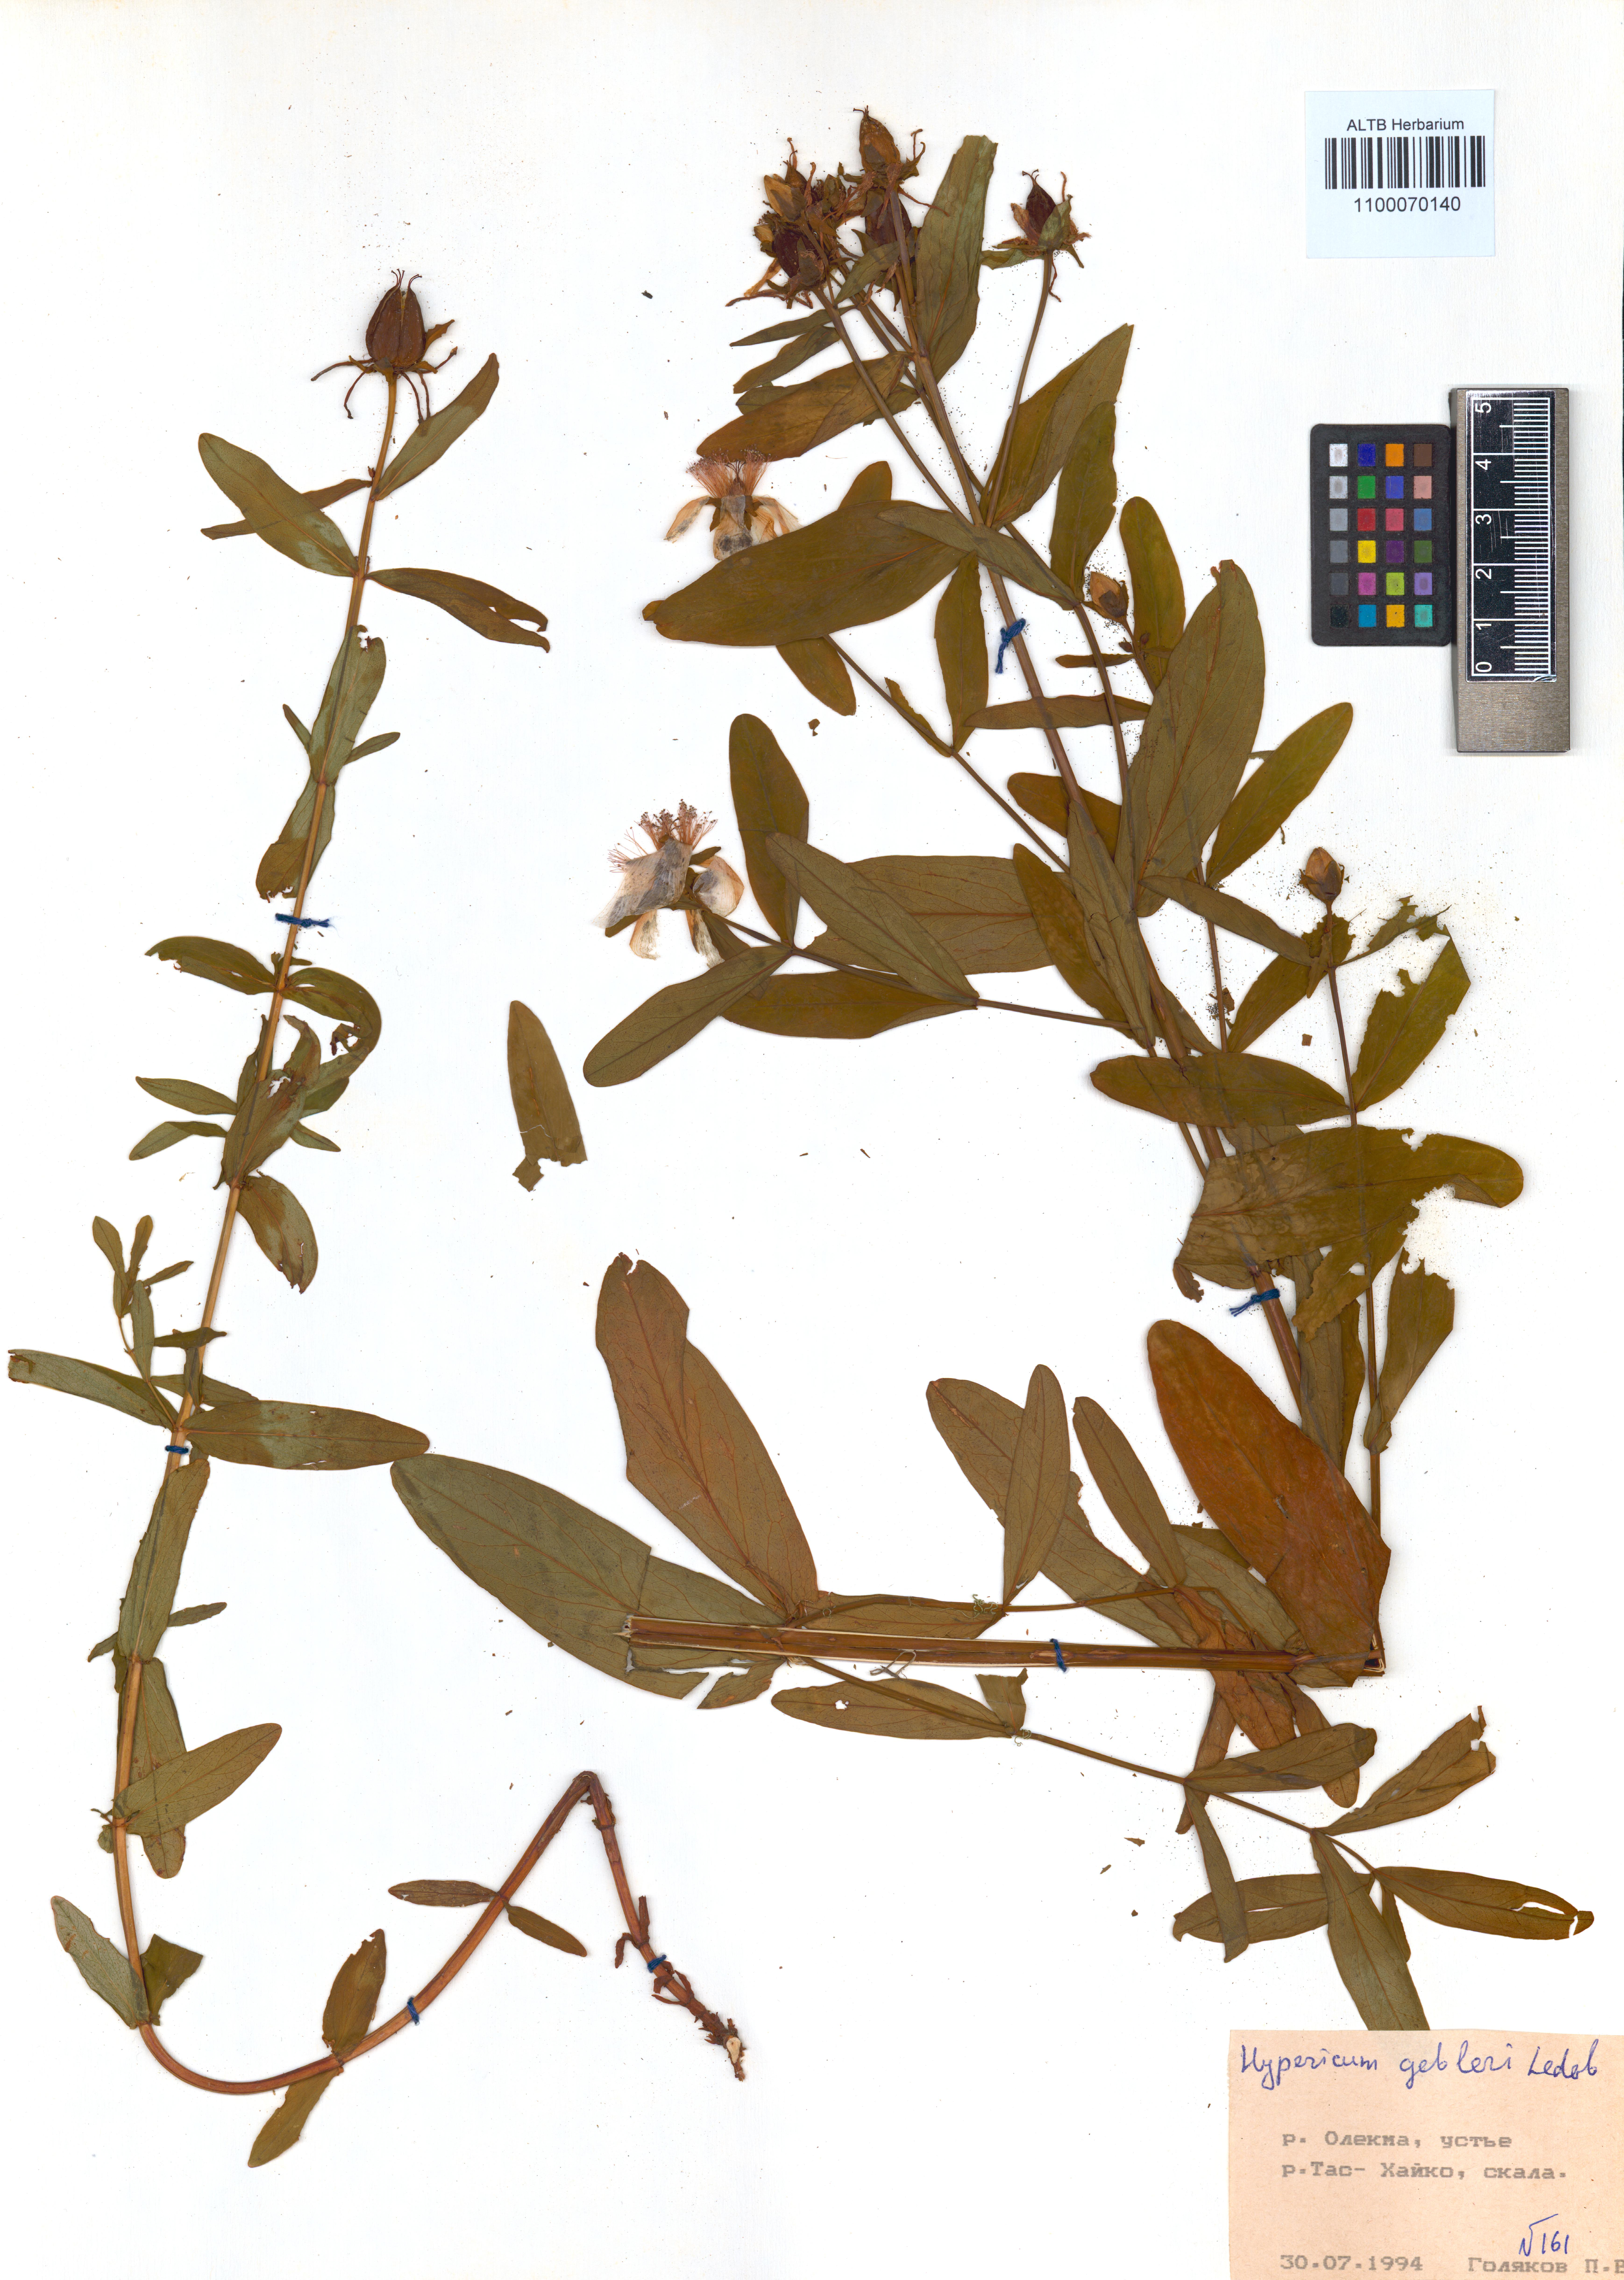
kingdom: Plantae
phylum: Tracheophyta
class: Magnoliopsida
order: Malpighiales
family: Hypericaceae
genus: Hypericum
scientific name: Hypericum ascyron
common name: Giant st. john's-wort
